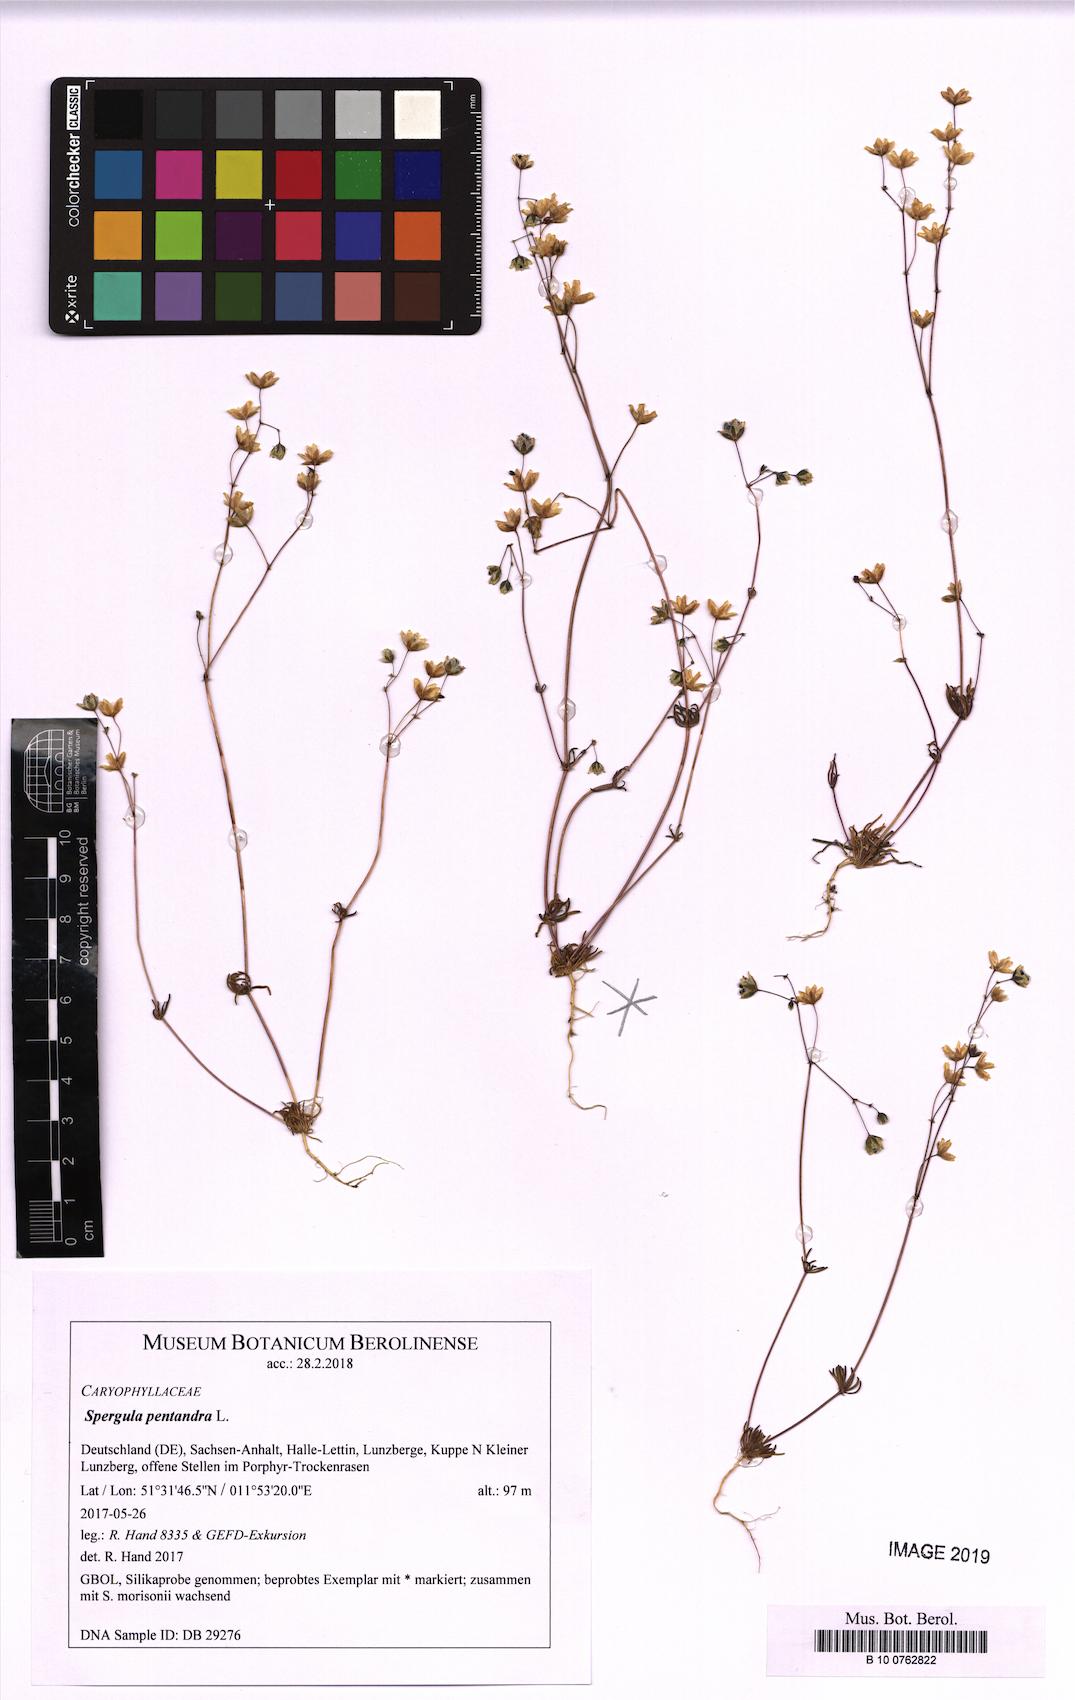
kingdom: Plantae
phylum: Tracheophyta
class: Magnoliopsida
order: Caryophyllales
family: Caryophyllaceae
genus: Spergula
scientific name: Spergula pentandra
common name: Wingstem spurry
